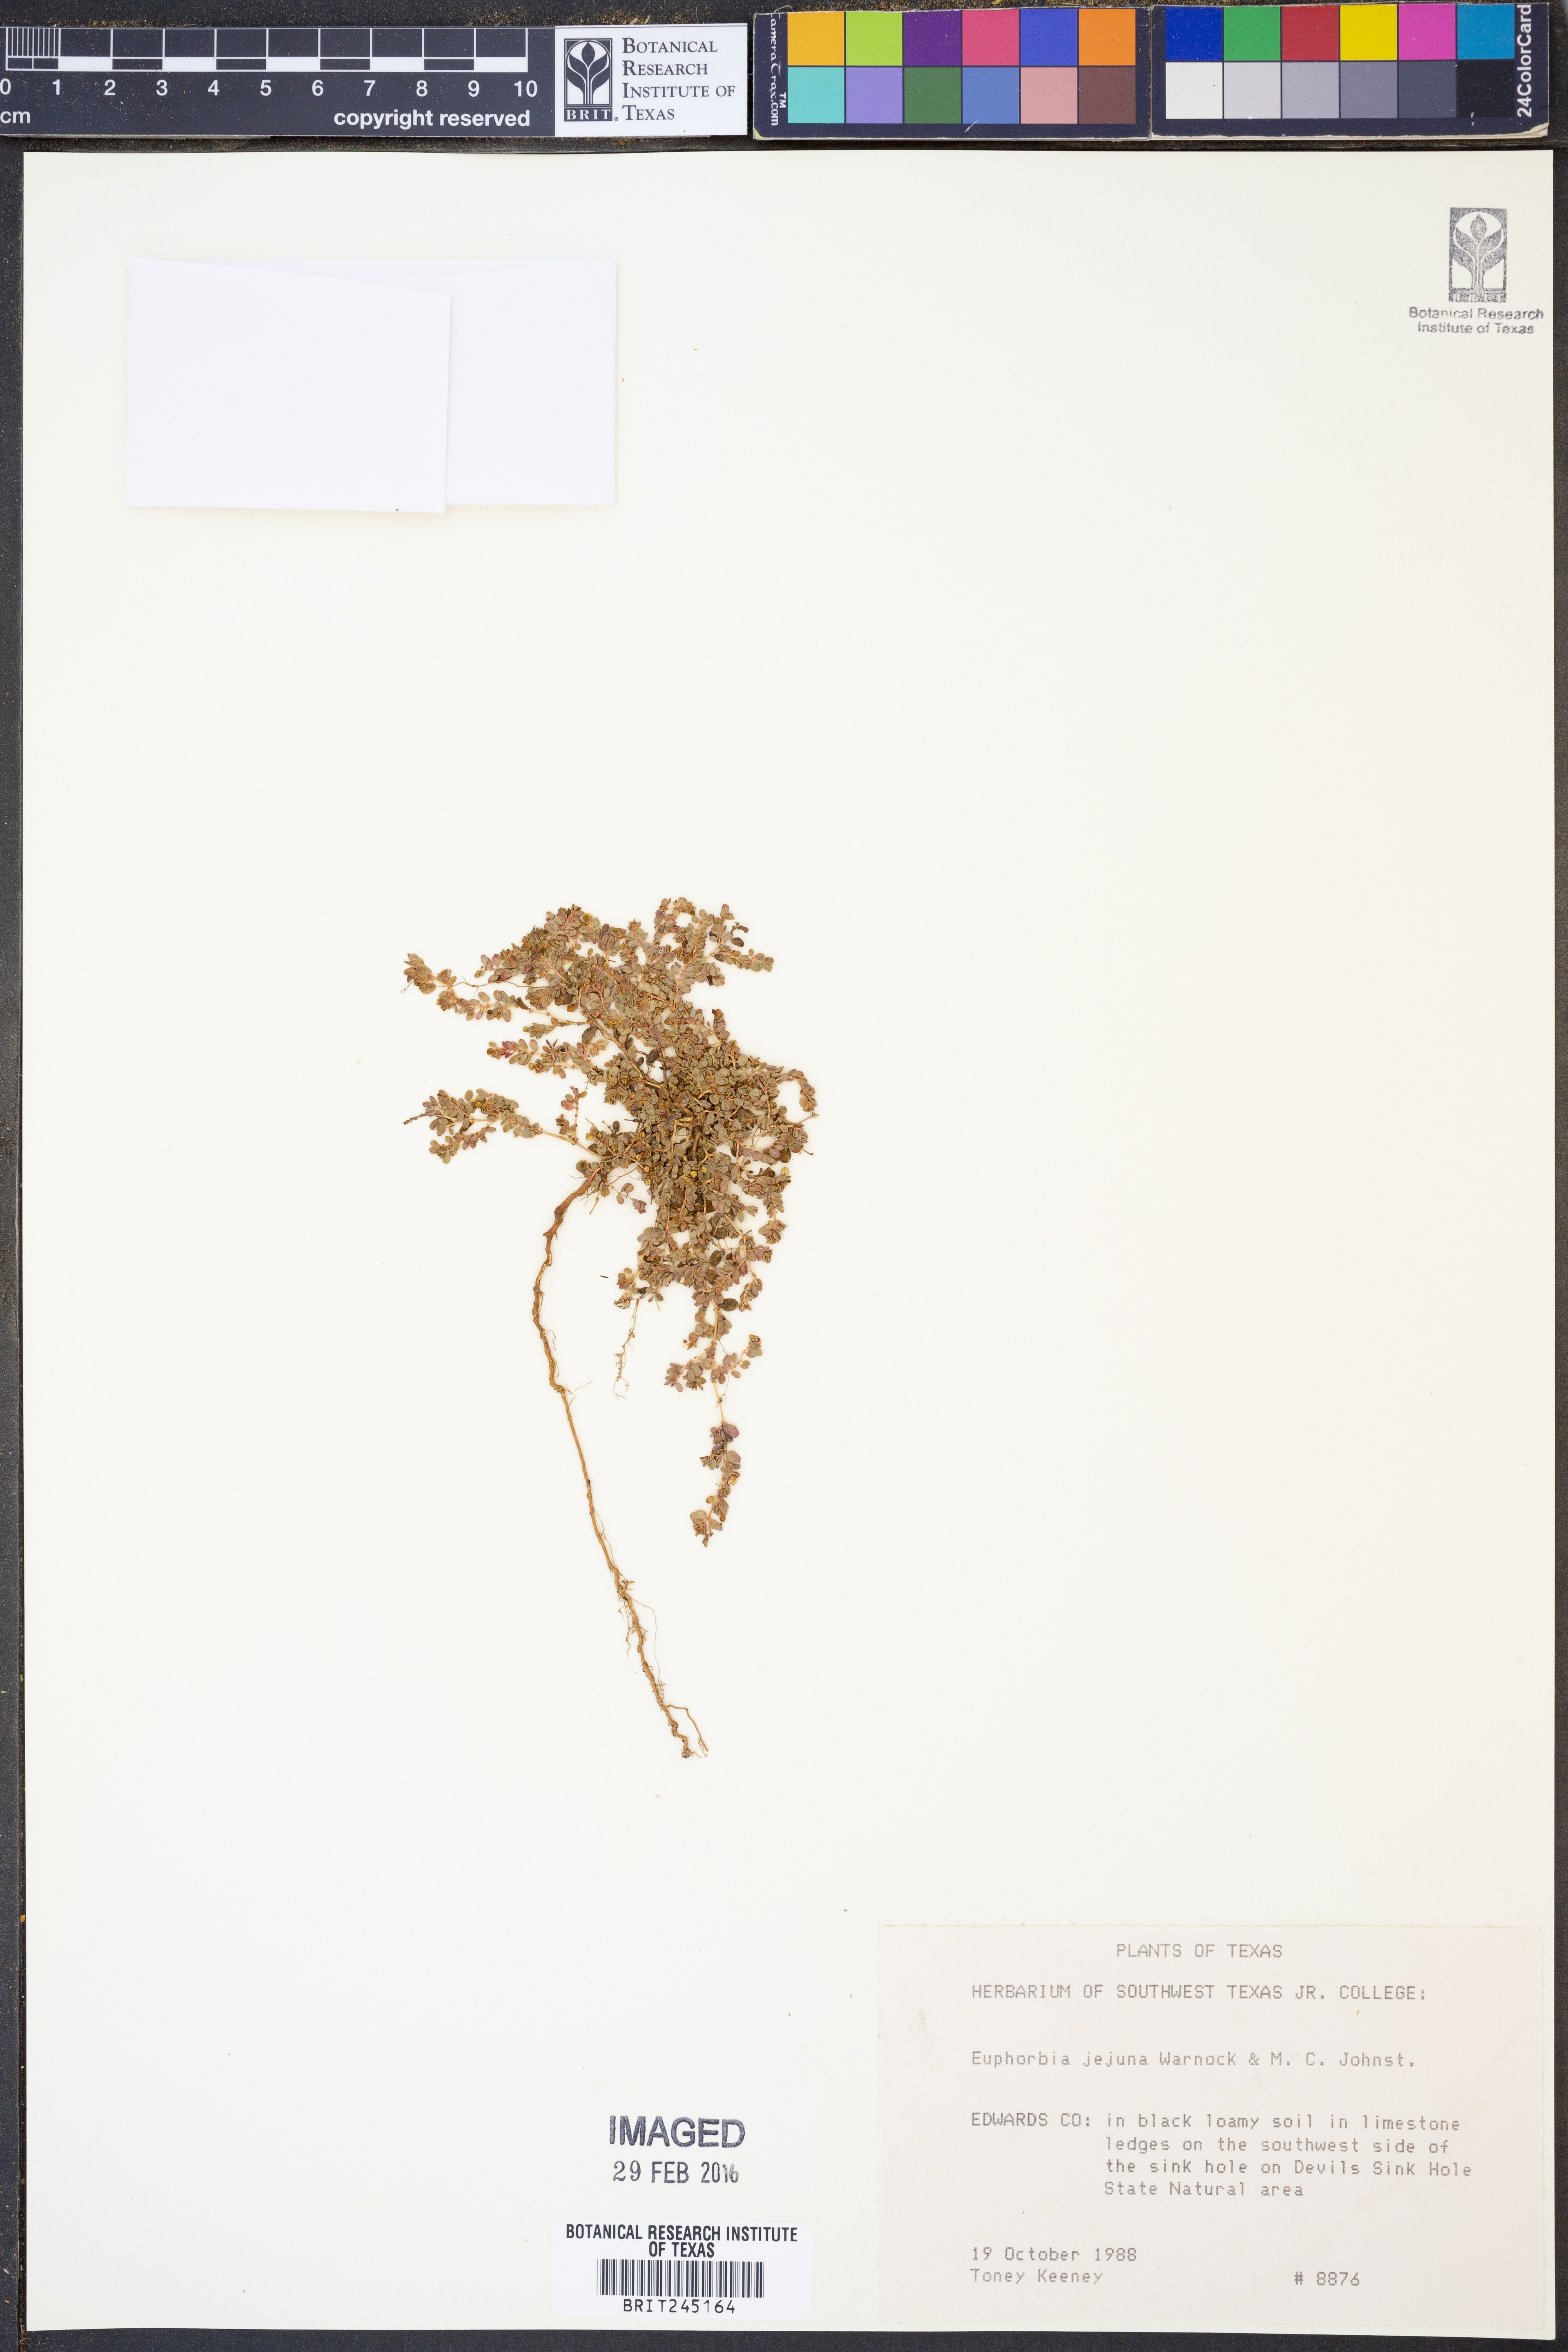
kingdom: Plantae
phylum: Tracheophyta
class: Magnoliopsida
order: Malpighiales
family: Euphorbiaceae
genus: Euphorbia
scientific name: Euphorbia jejuna
